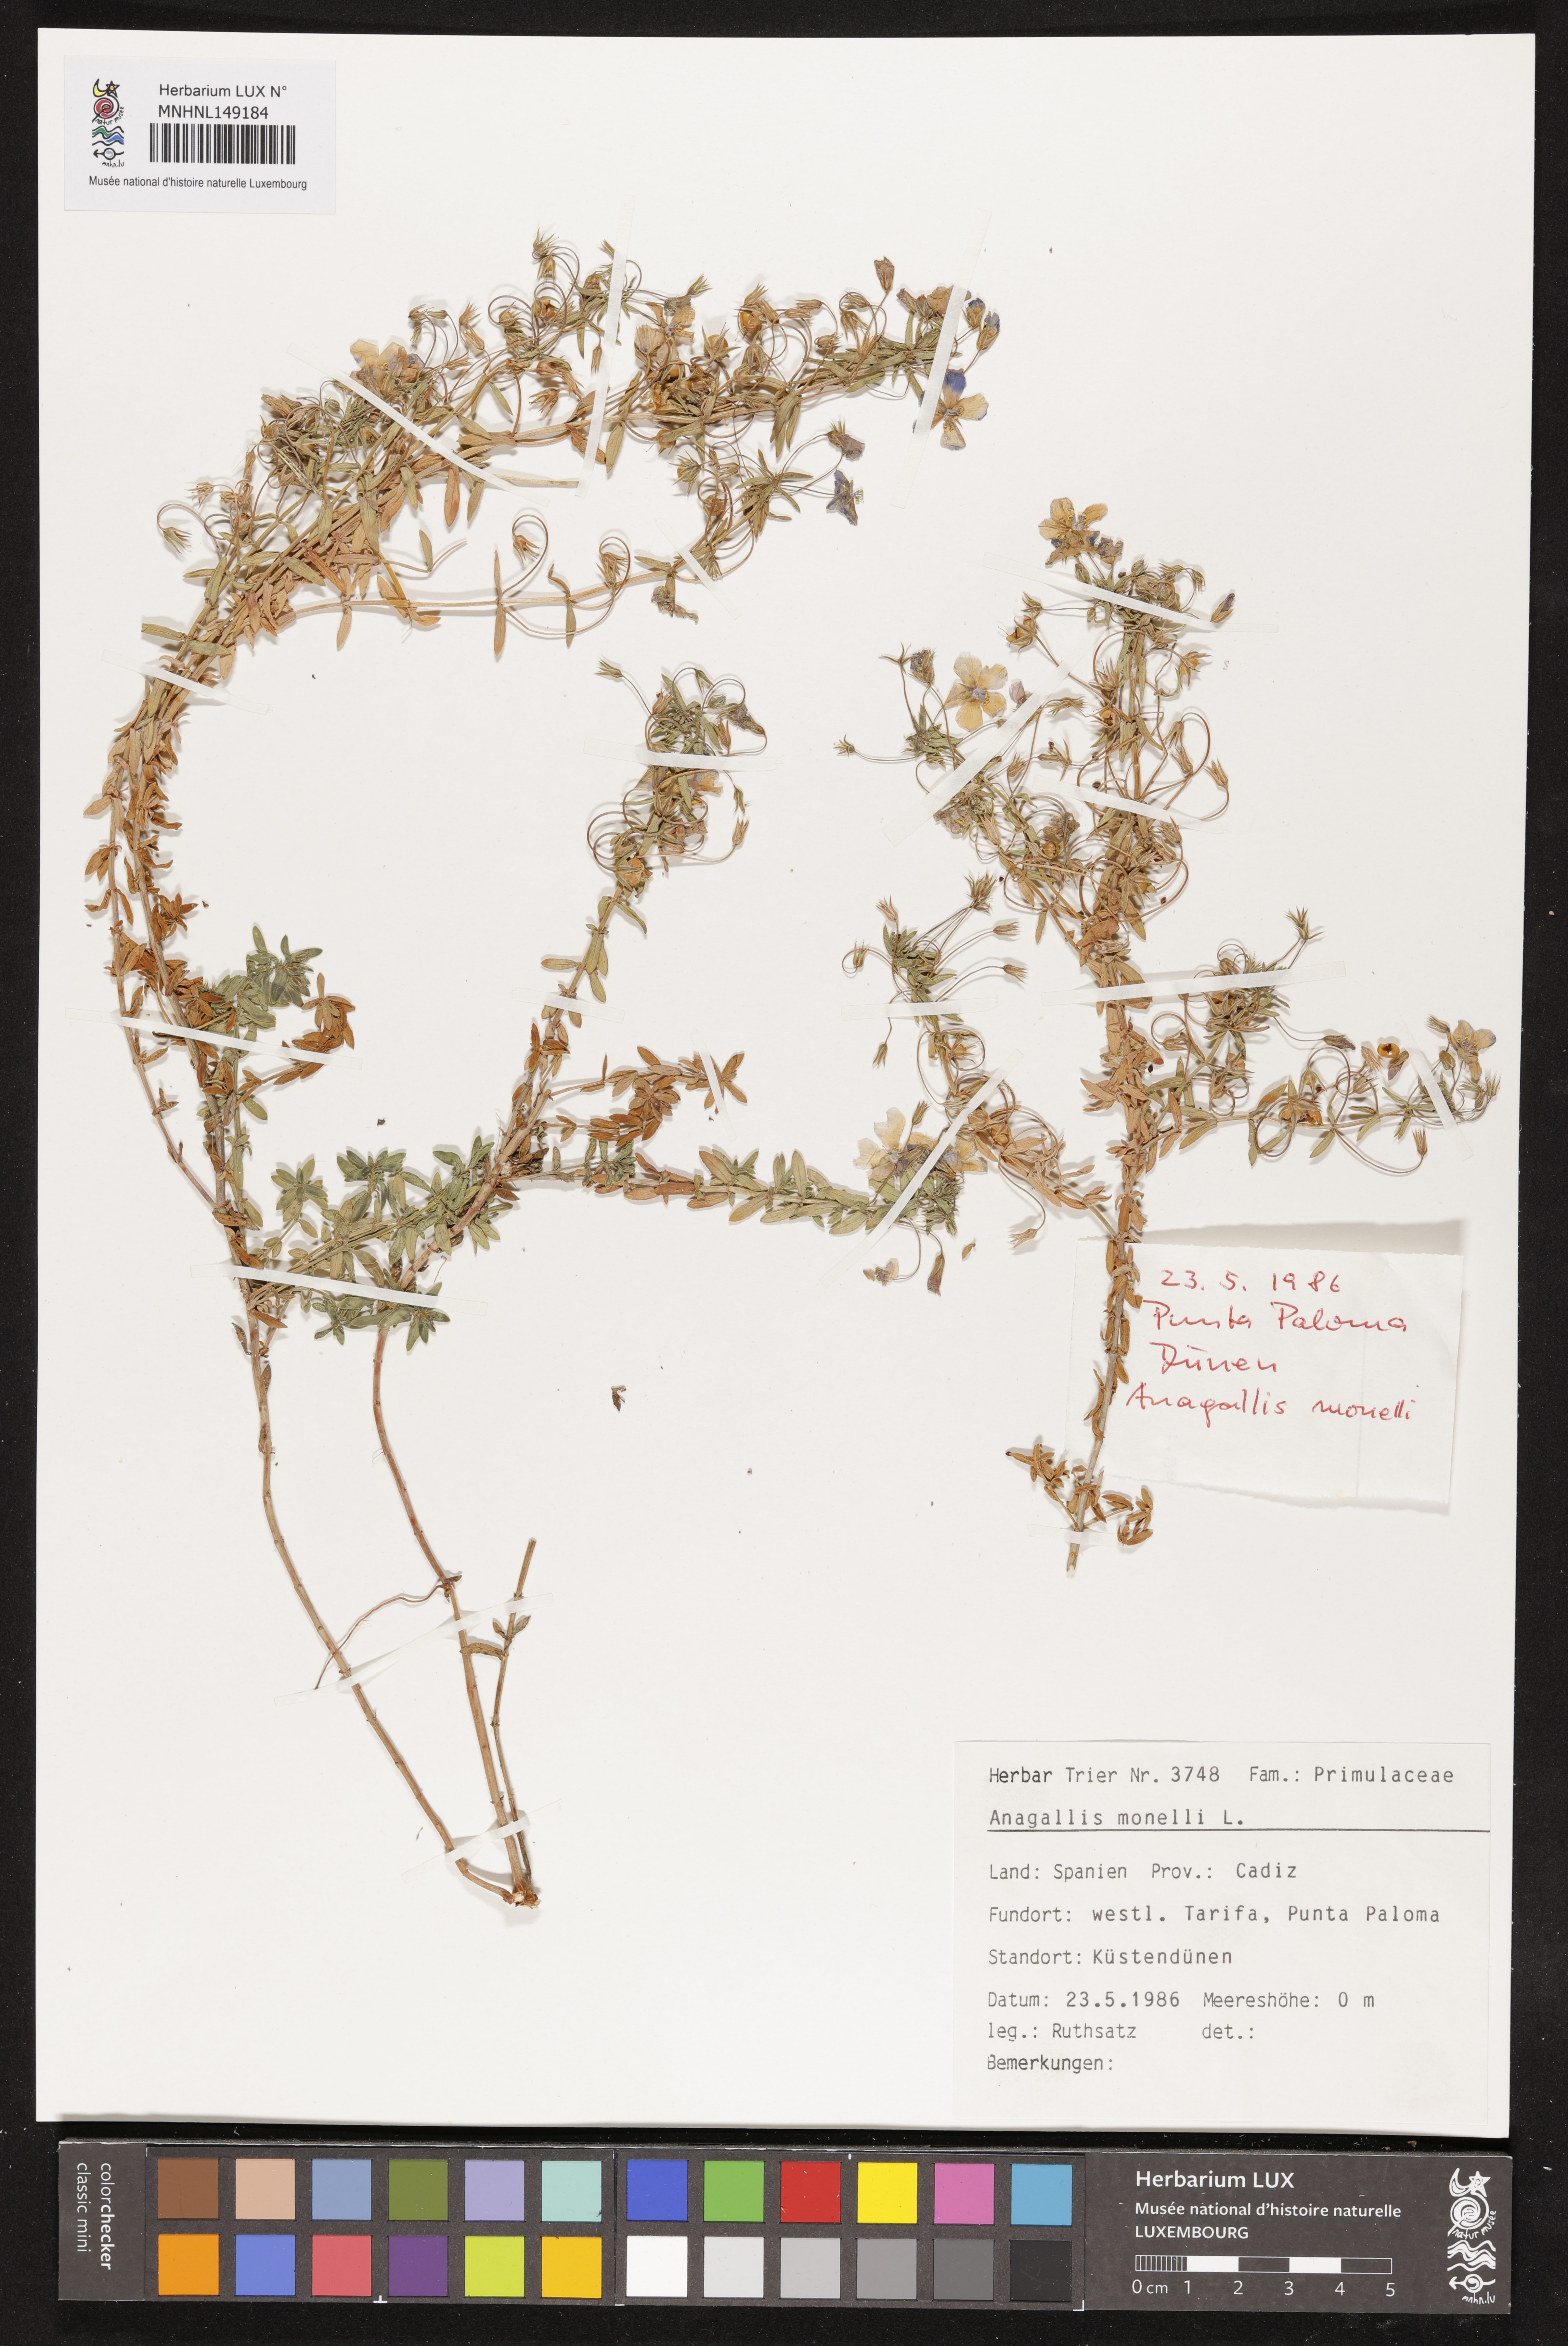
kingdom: Plantae
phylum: Tracheophyta
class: Magnoliopsida
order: Ericales
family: Primulaceae
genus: Lysimachia
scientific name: Lysimachia monelli
